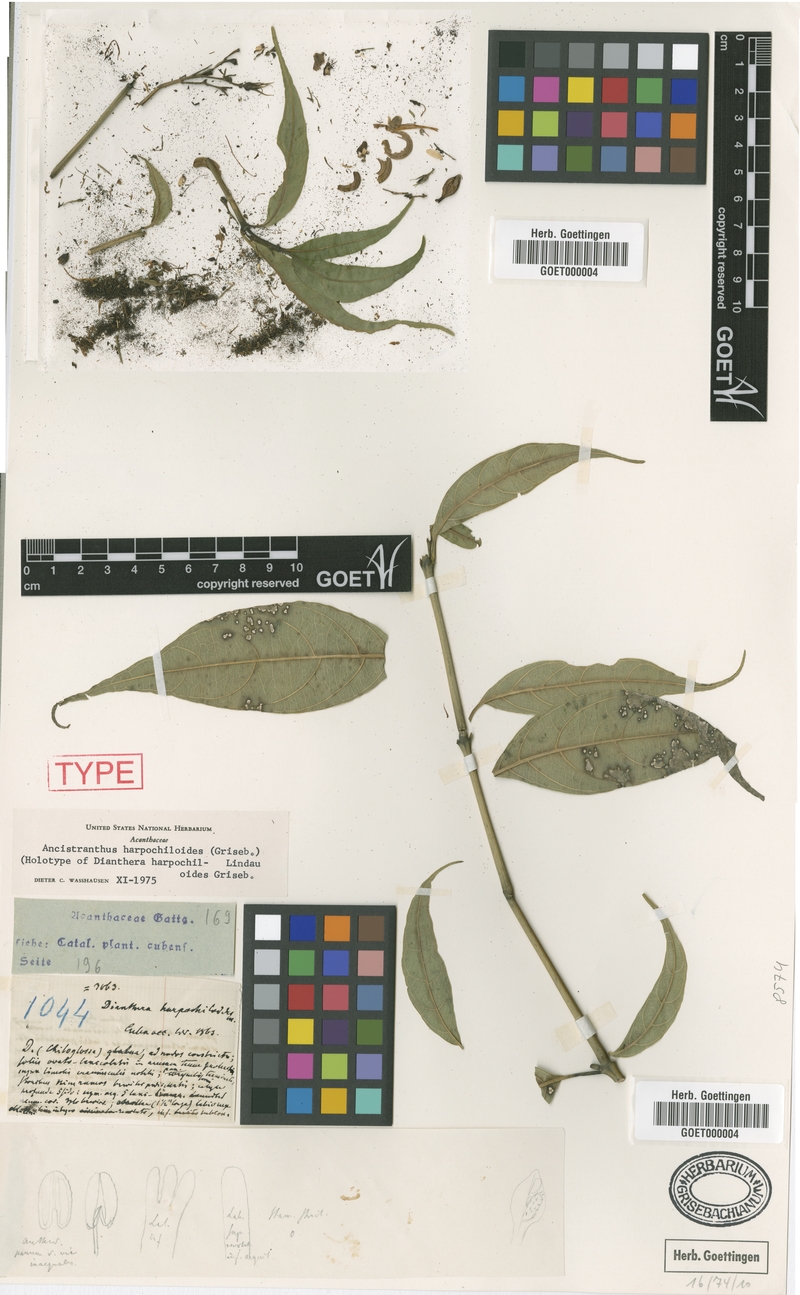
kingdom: Plantae
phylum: Tracheophyta
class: Magnoliopsida
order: Lamiales
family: Acanthaceae
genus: Ancistranthus
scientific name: Ancistranthus harpochiloides
